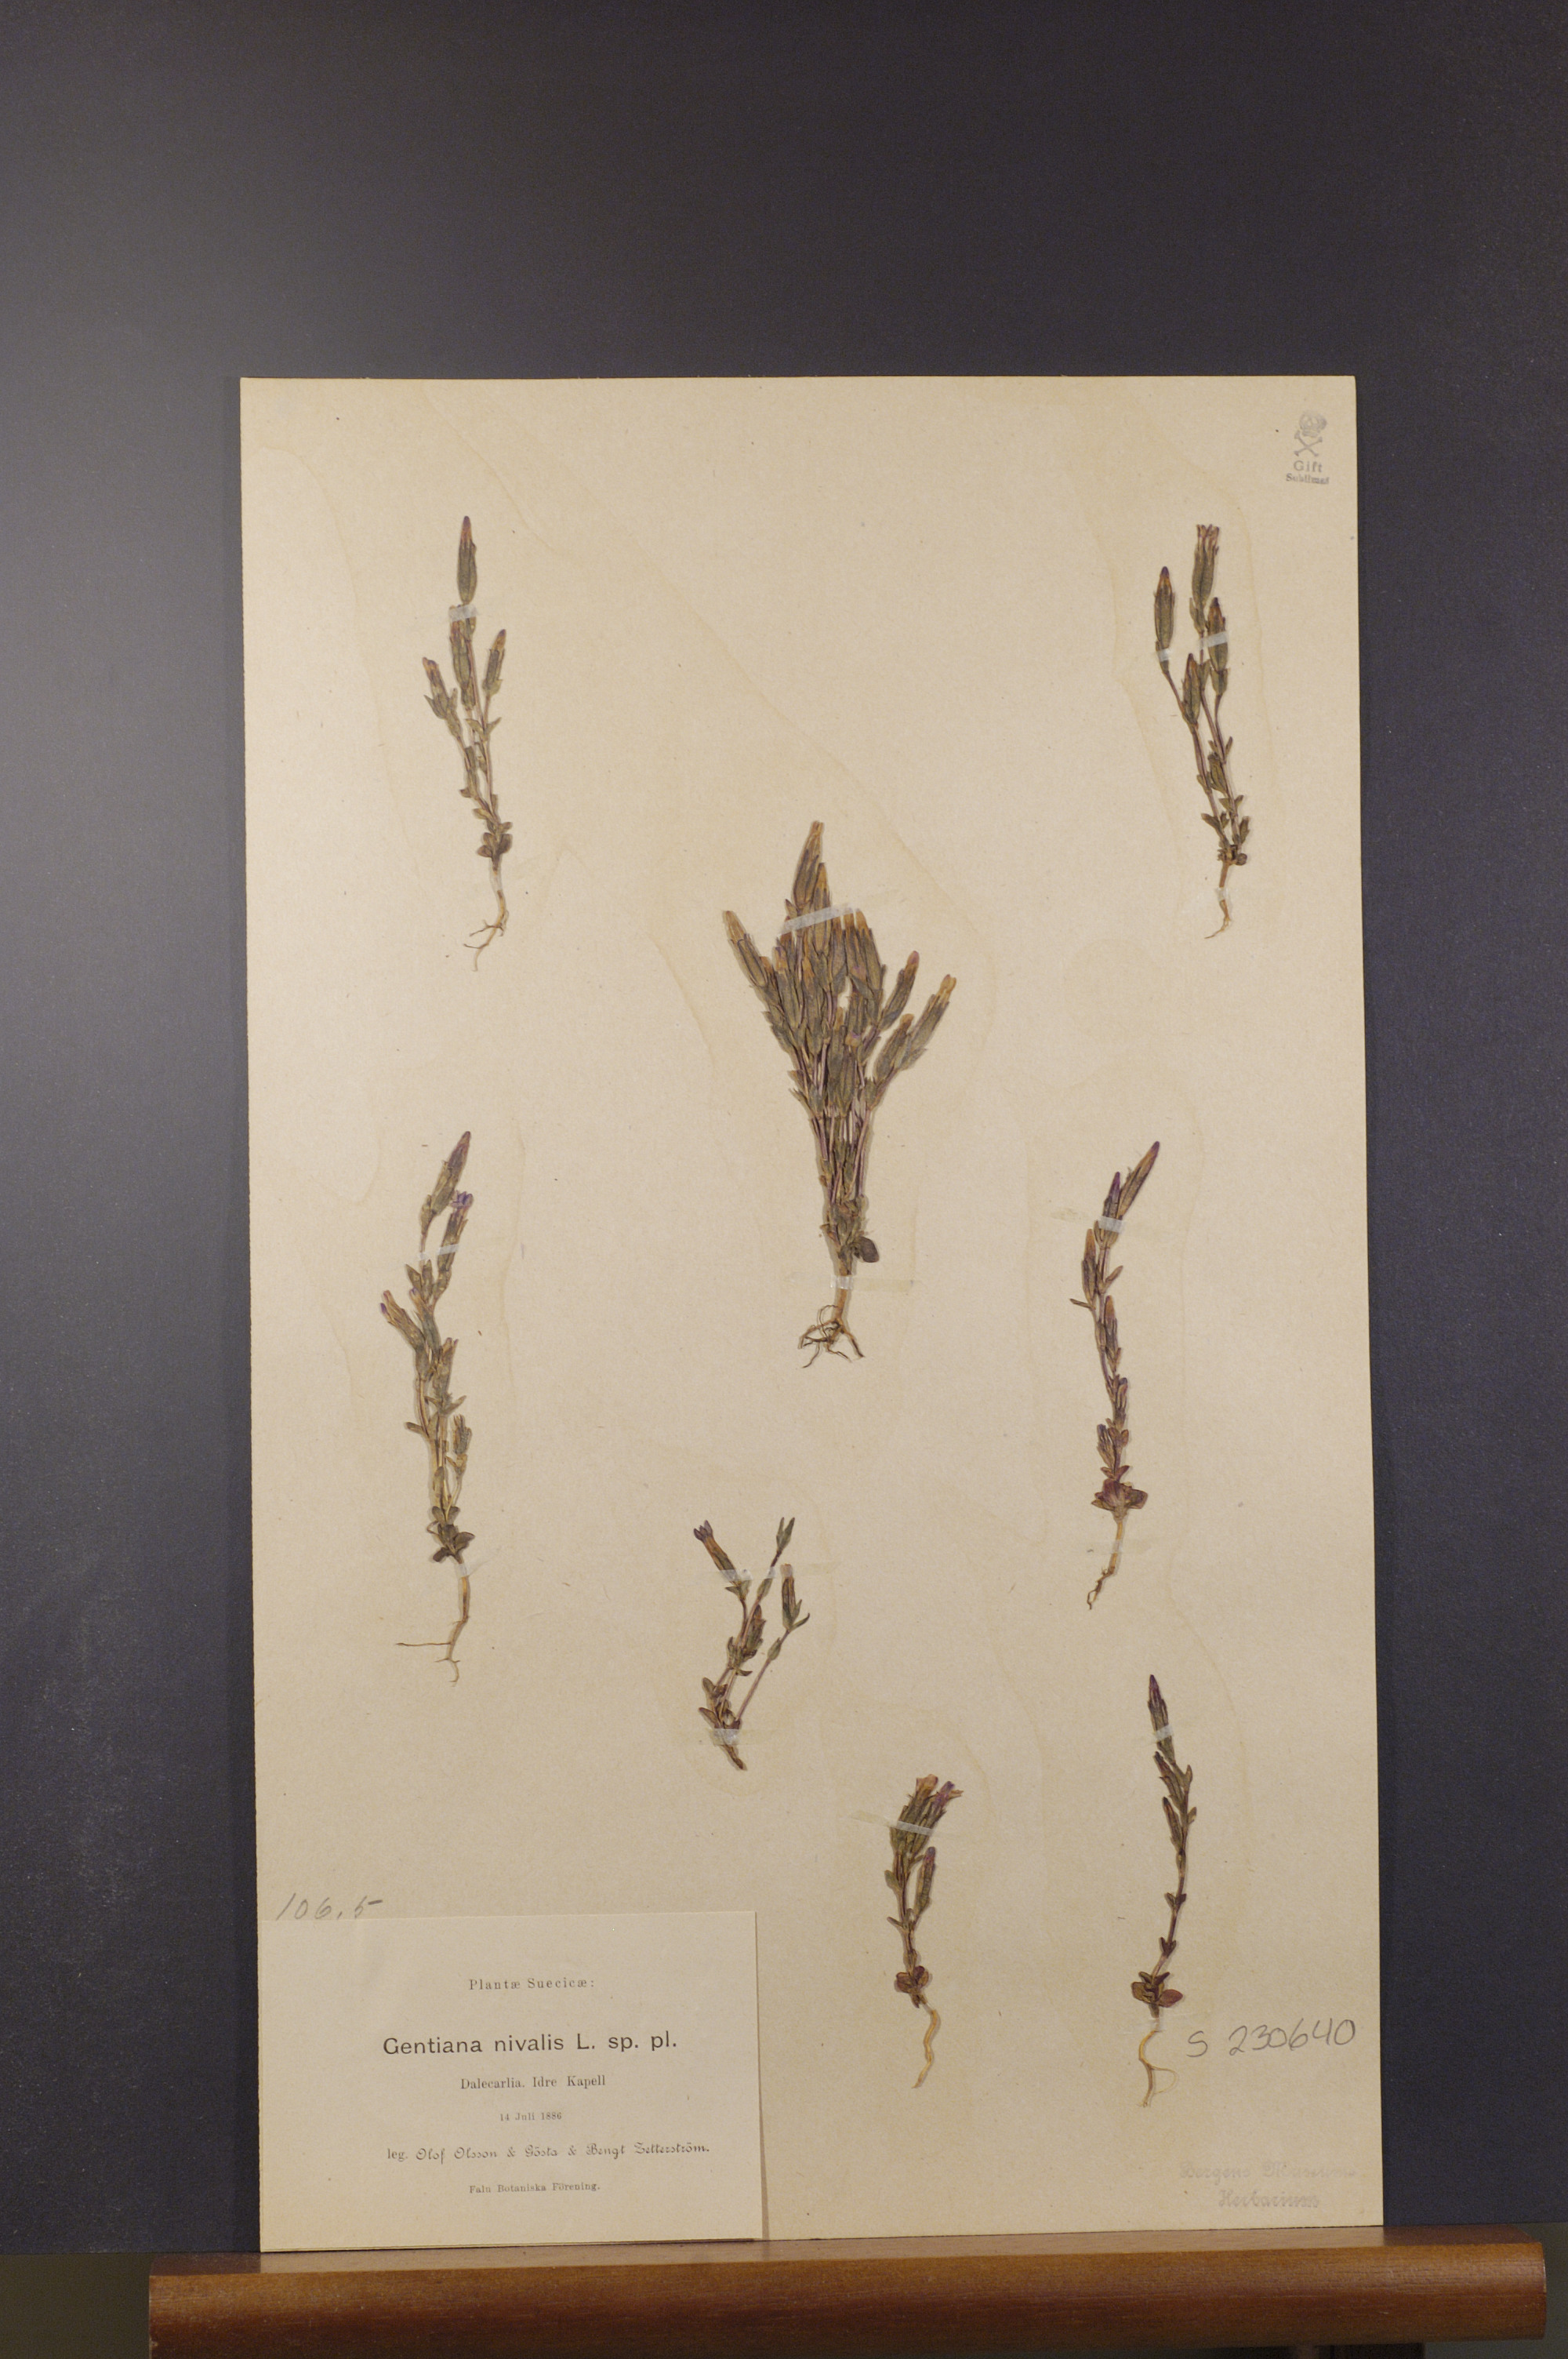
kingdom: Plantae
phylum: Tracheophyta
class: Magnoliopsida
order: Gentianales
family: Gentianaceae
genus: Gentiana
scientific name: Gentiana nivalis
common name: Alpine gentian
